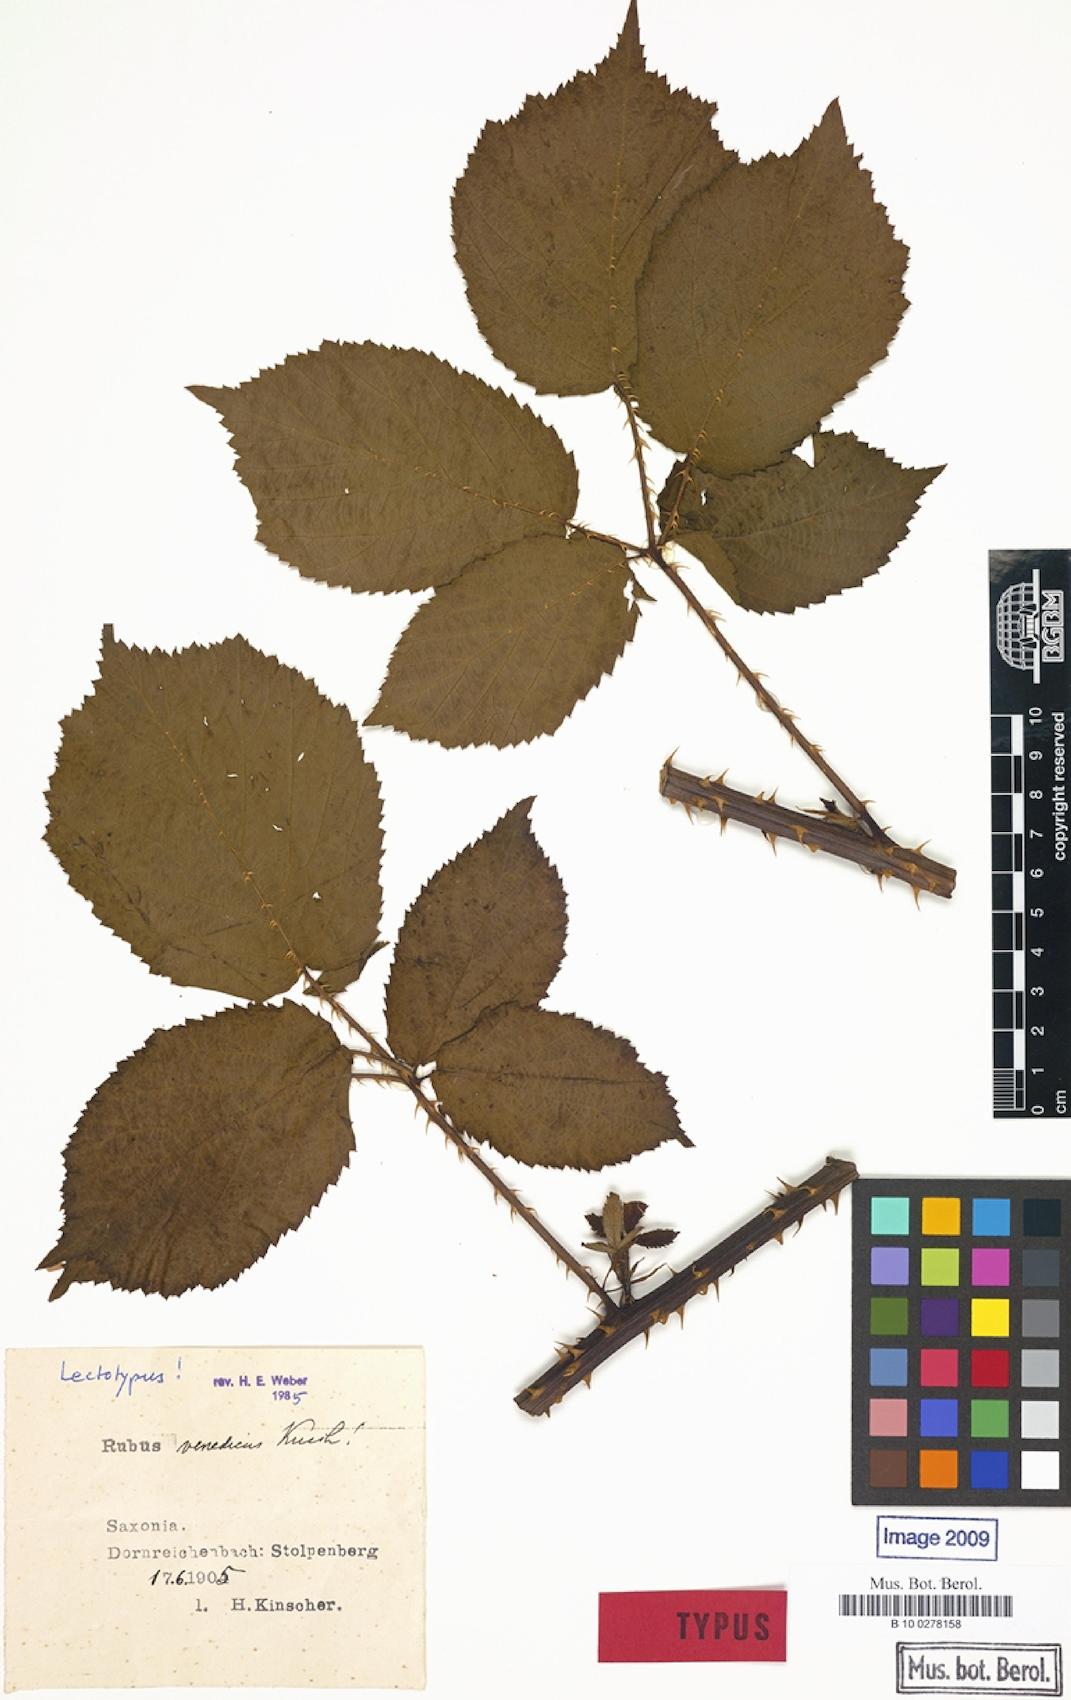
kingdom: Plantae
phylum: Tracheophyta
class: Magnoliopsida
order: Rosales
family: Rosaceae
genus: Rubus
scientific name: Rubus tabanimontanus
